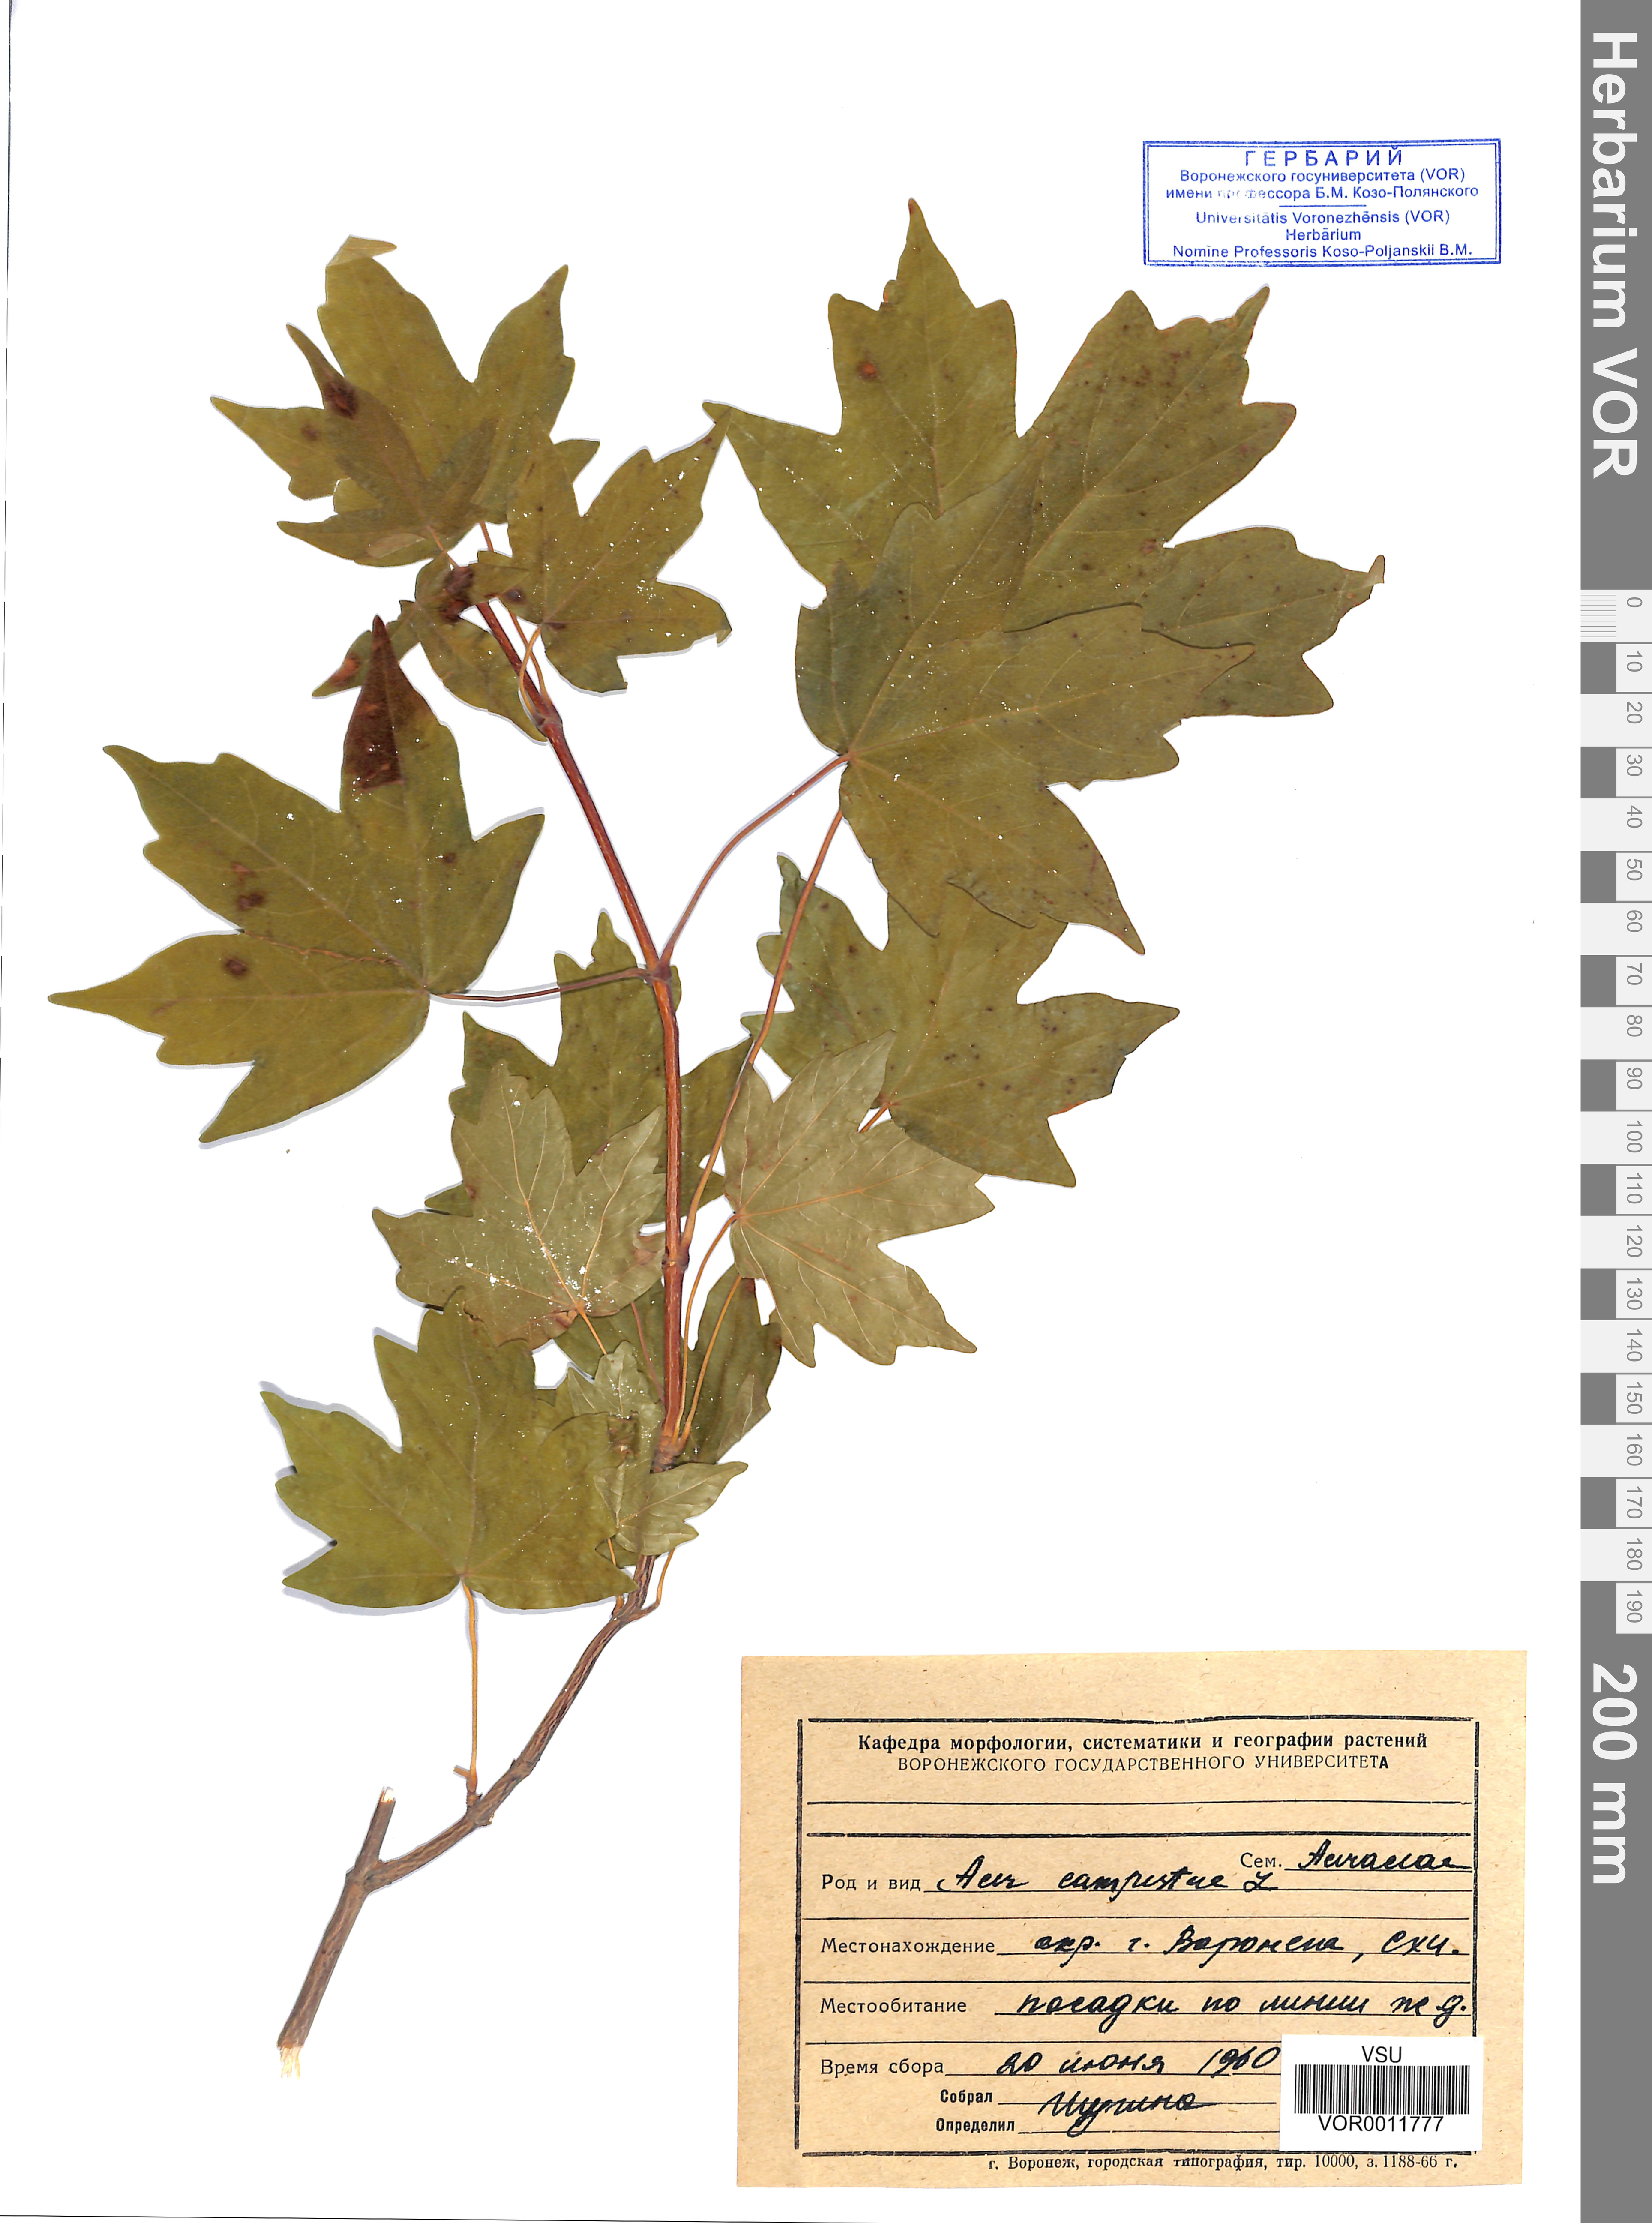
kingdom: Plantae
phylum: Tracheophyta
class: Magnoliopsida
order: Sapindales
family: Sapindaceae
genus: Acer
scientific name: Acer campestre
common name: Field maple
